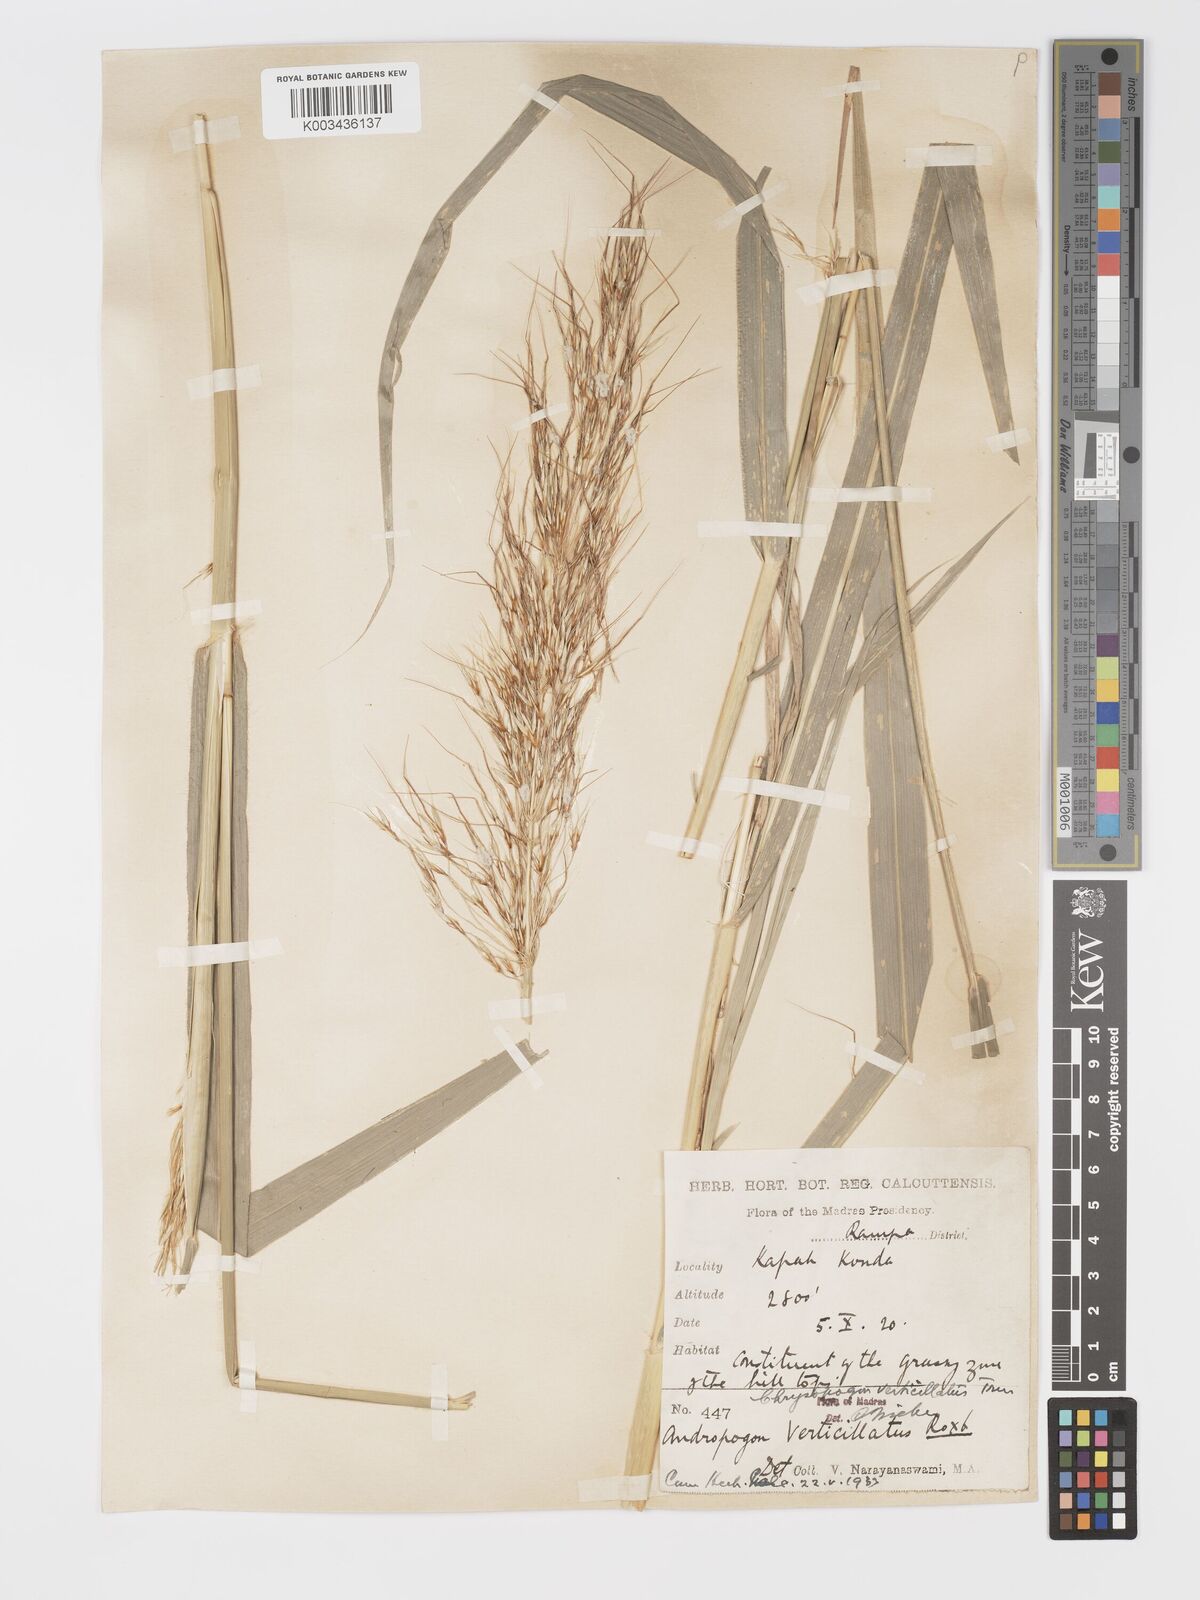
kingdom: Plantae
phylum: Tracheophyta
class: Liliopsida
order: Poales
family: Poaceae
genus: Chrysopogon
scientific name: Chrysopogon verticillatus
